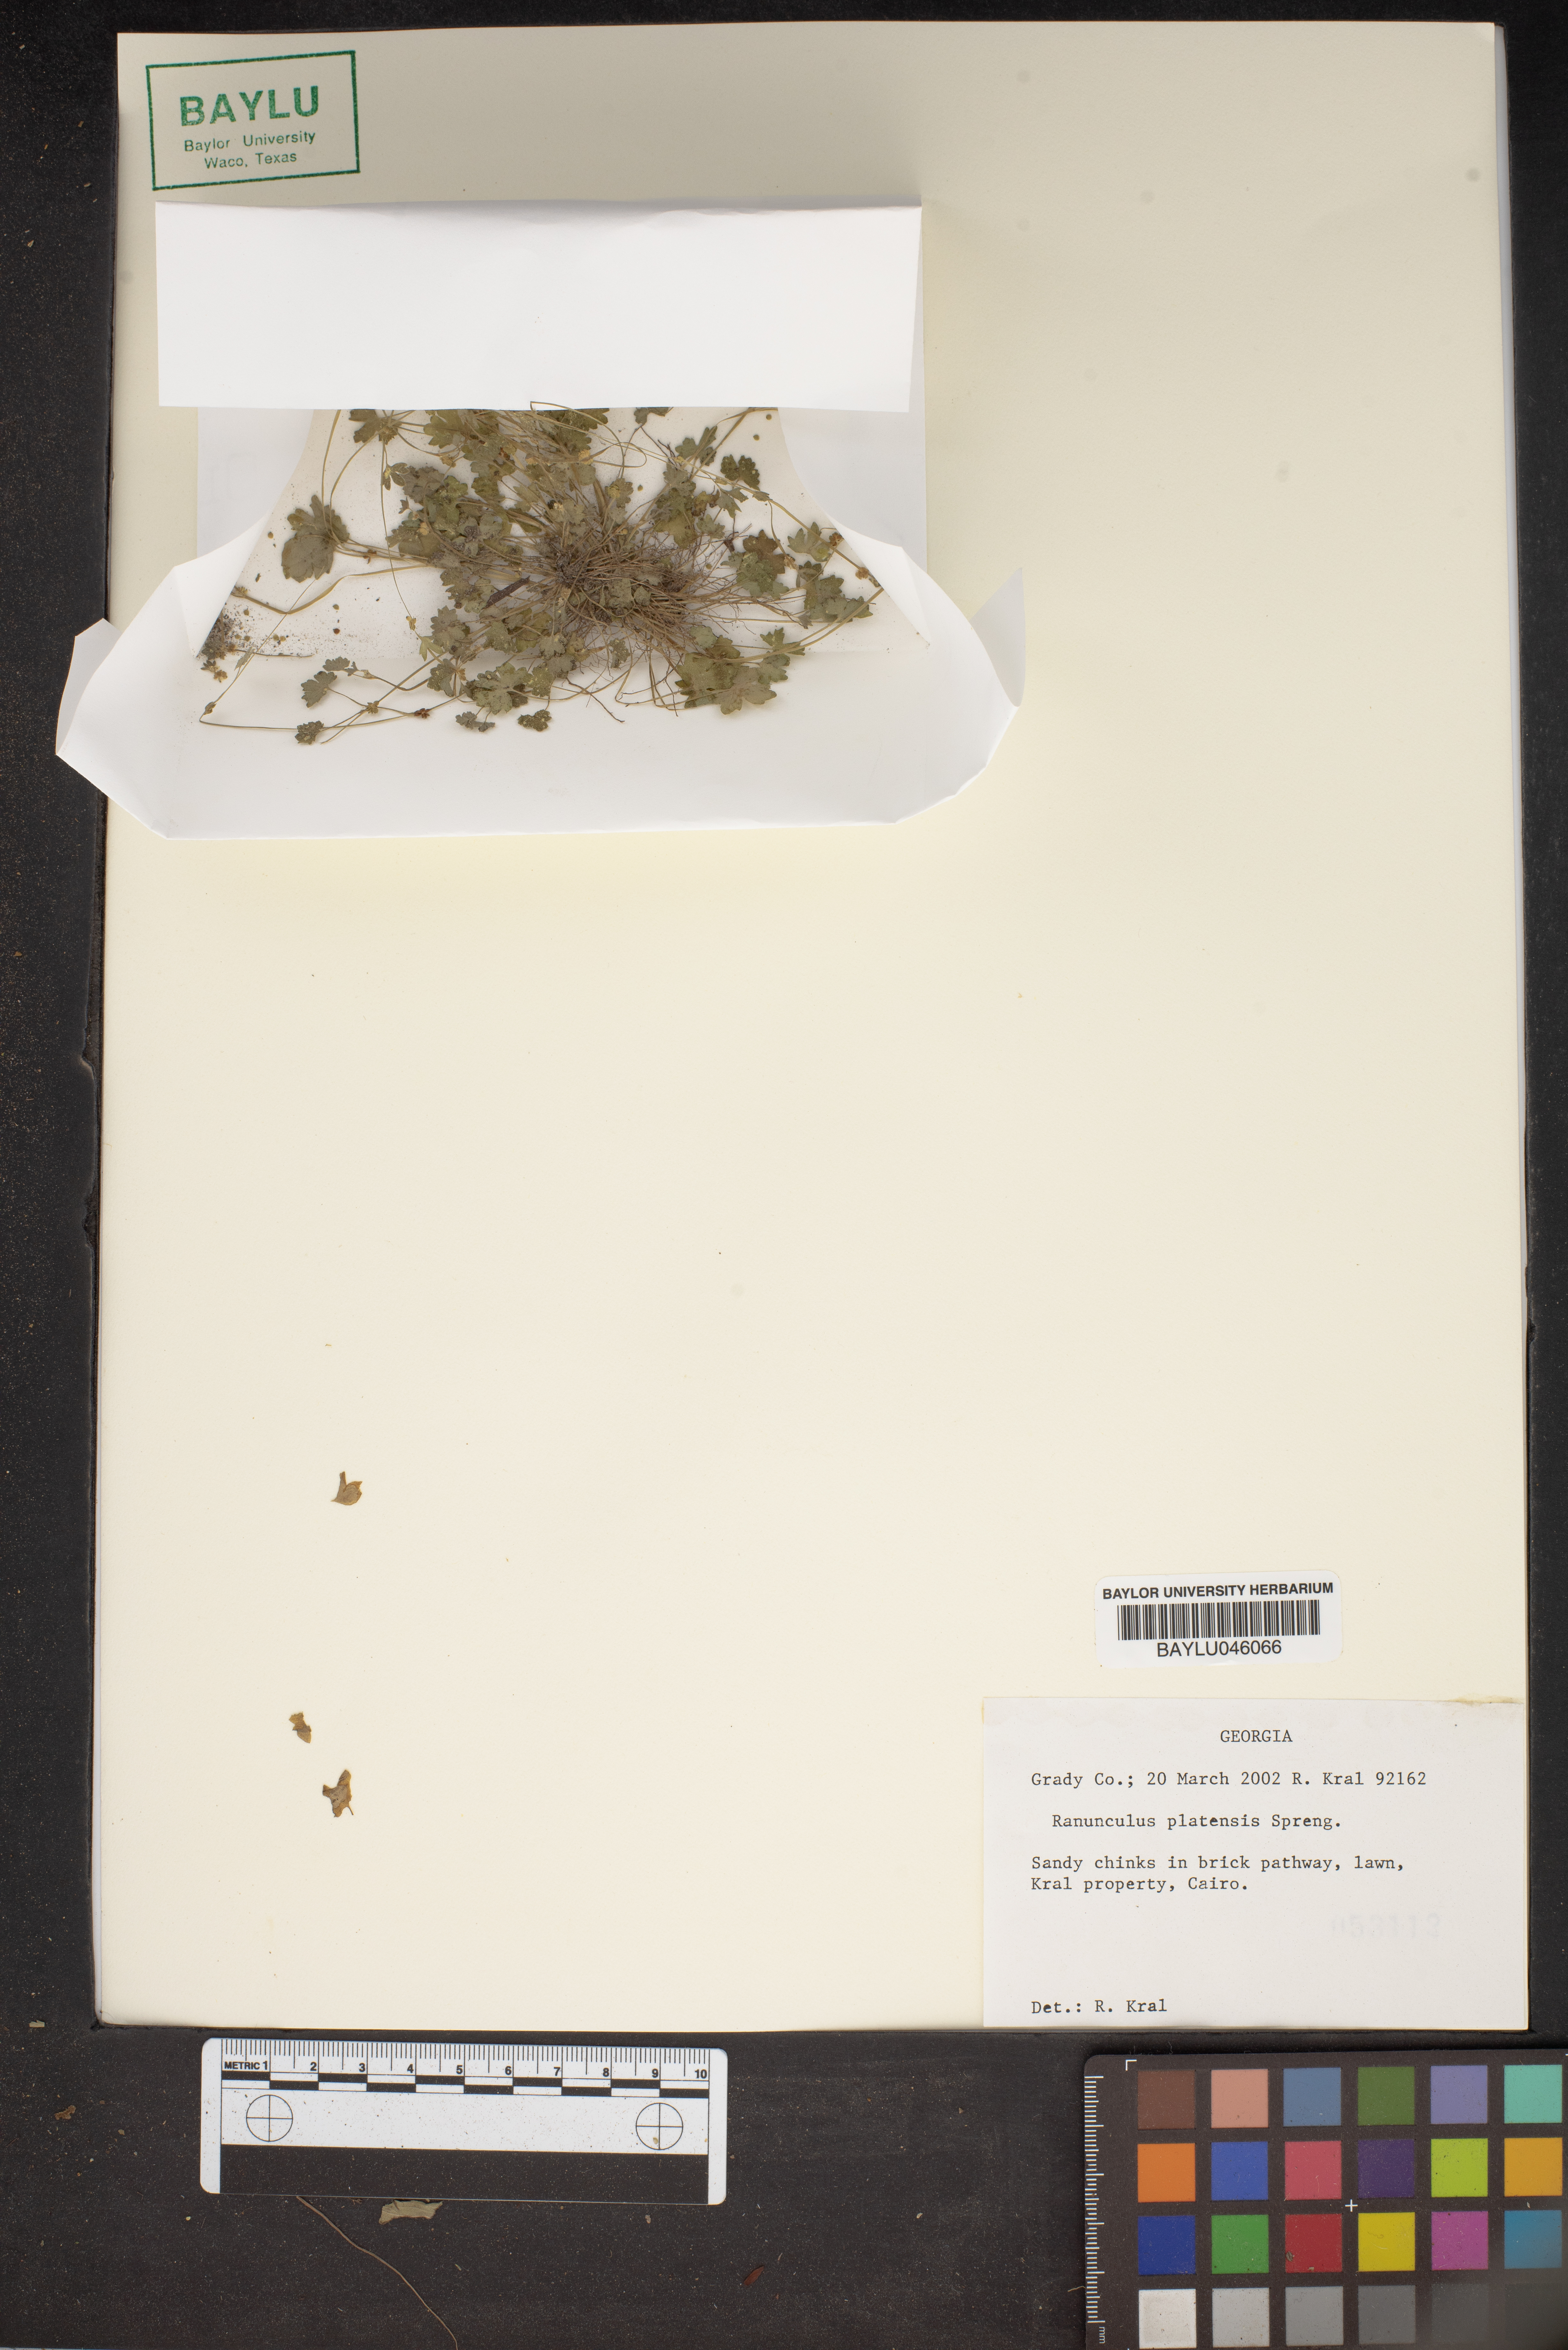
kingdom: Plantae
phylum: Tracheophyta
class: Magnoliopsida
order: Ranunculales
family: Ranunculaceae
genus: Ranunculus
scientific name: Ranunculus platensis
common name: Prairie buttercup
